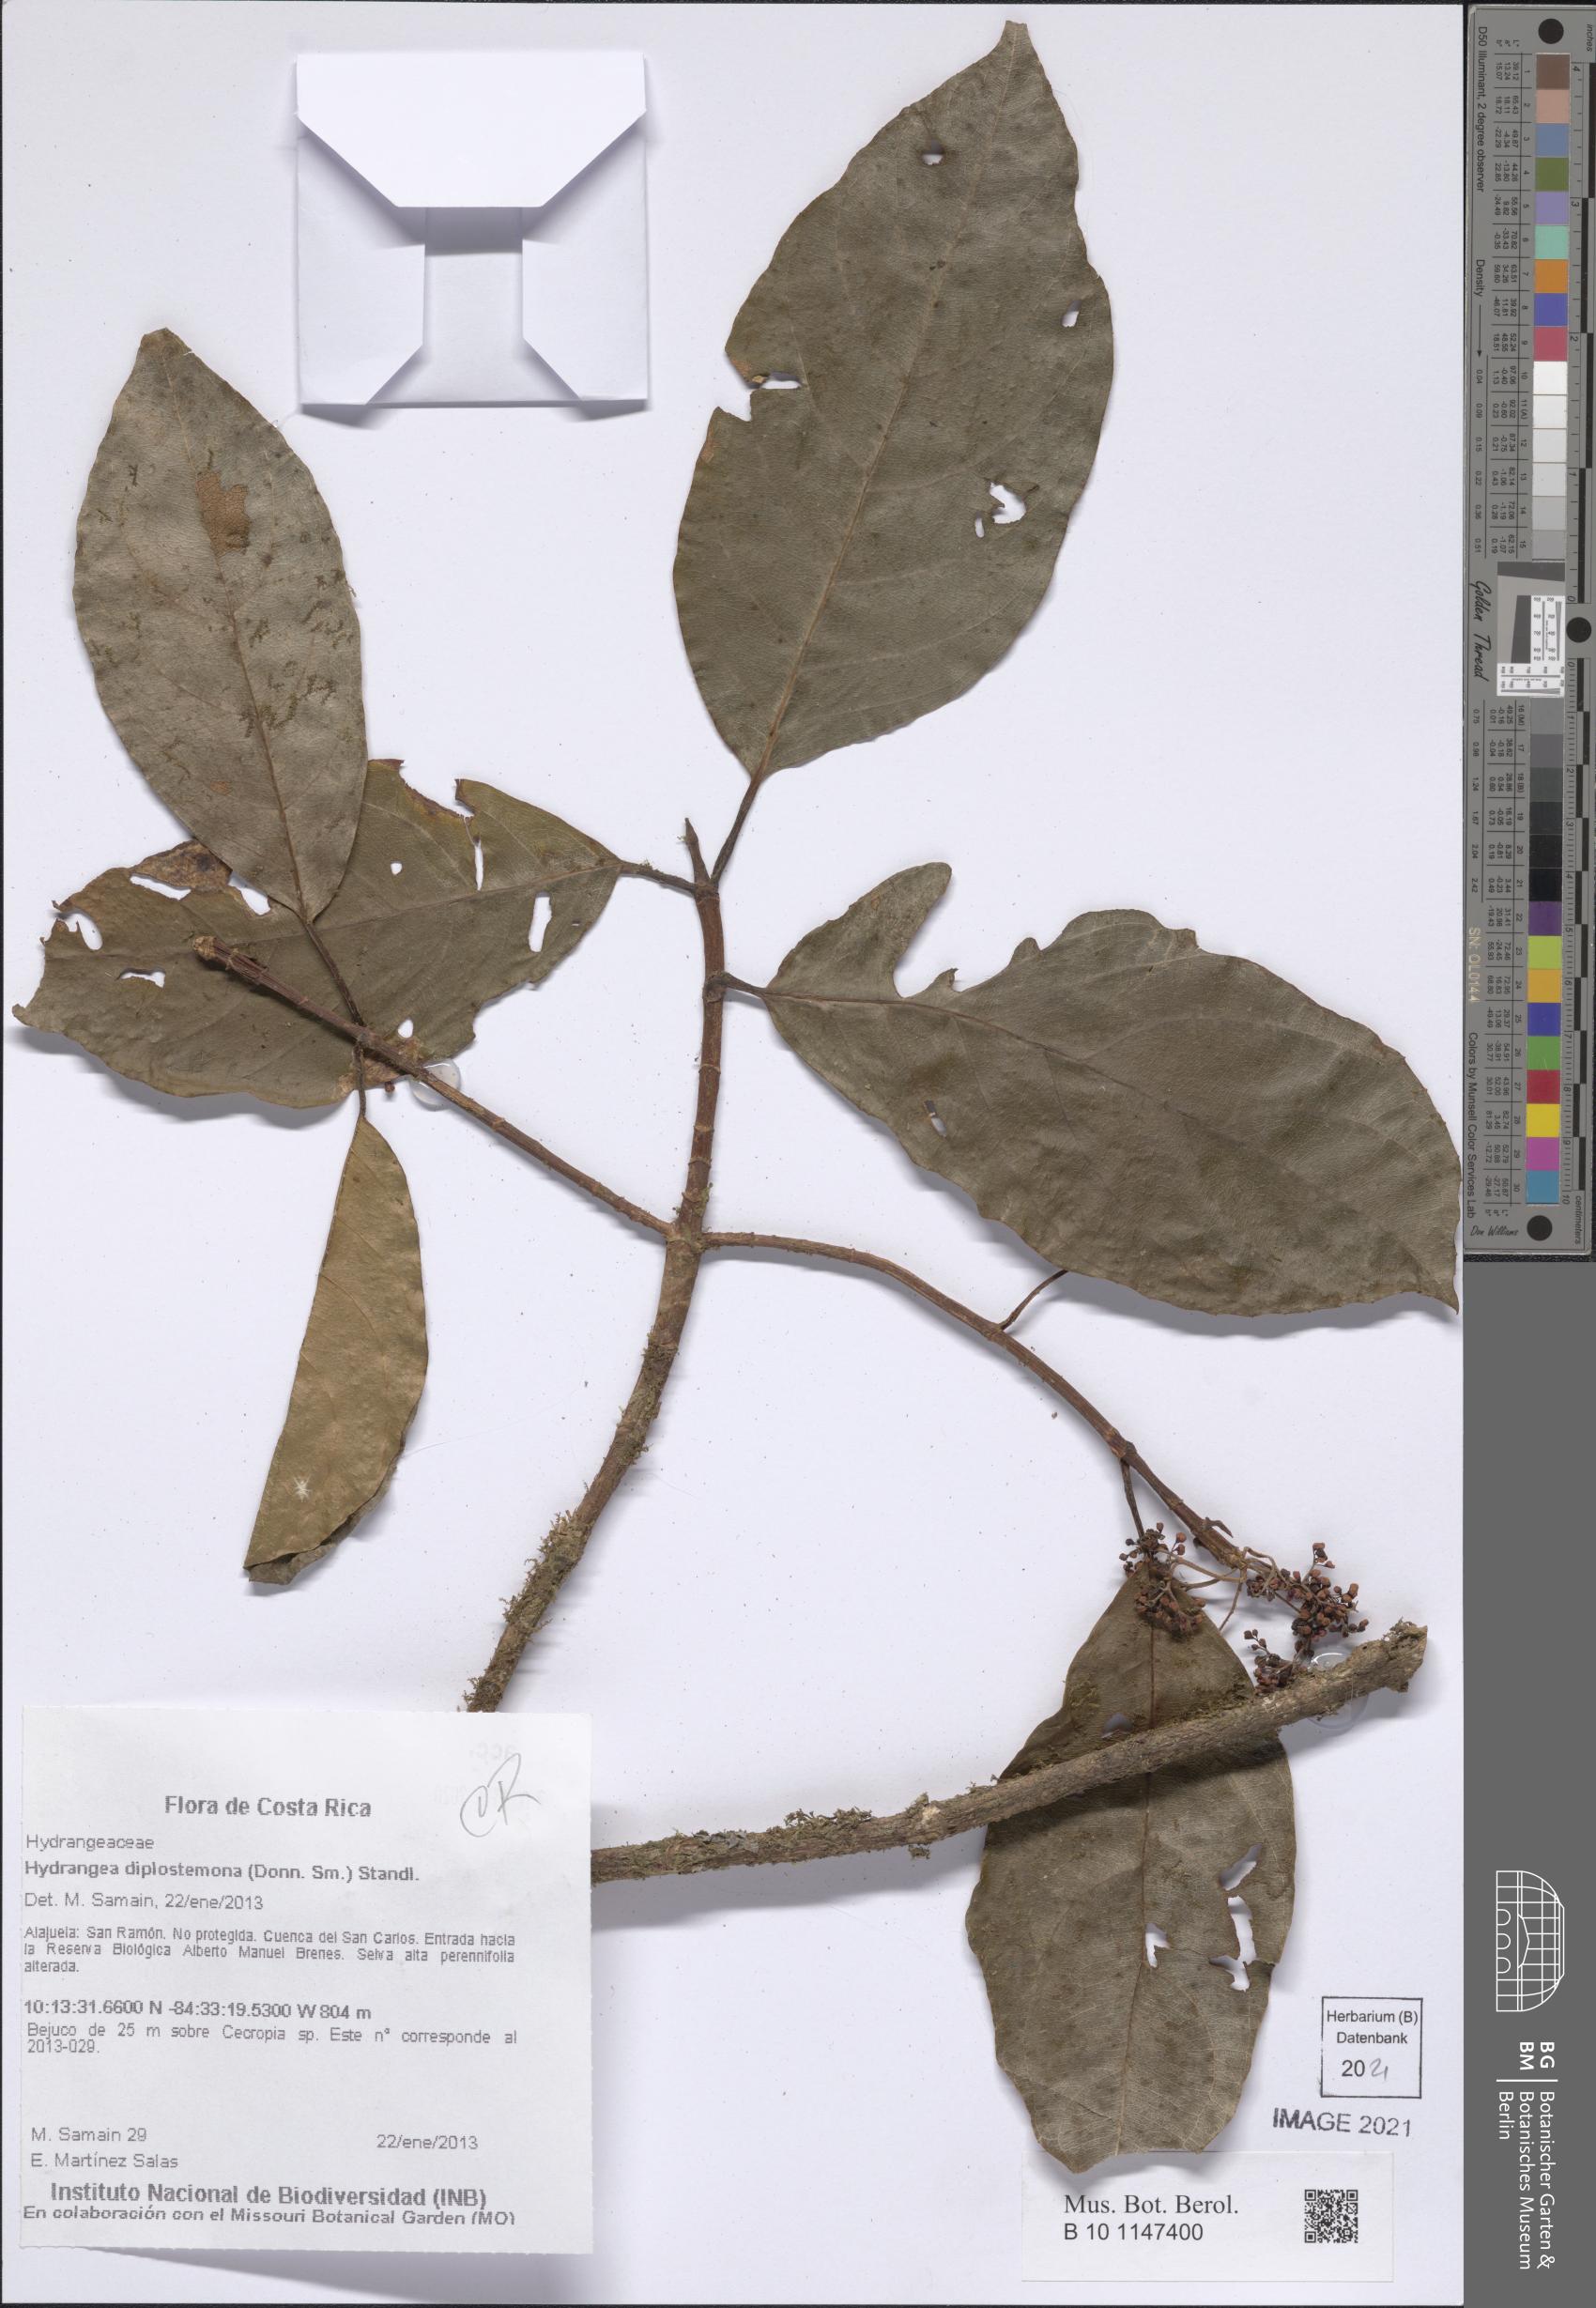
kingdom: Plantae
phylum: Tracheophyta
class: Magnoliopsida
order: Cornales
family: Hydrangeaceae
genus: Hydrangea
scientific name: Hydrangea diplostemona
